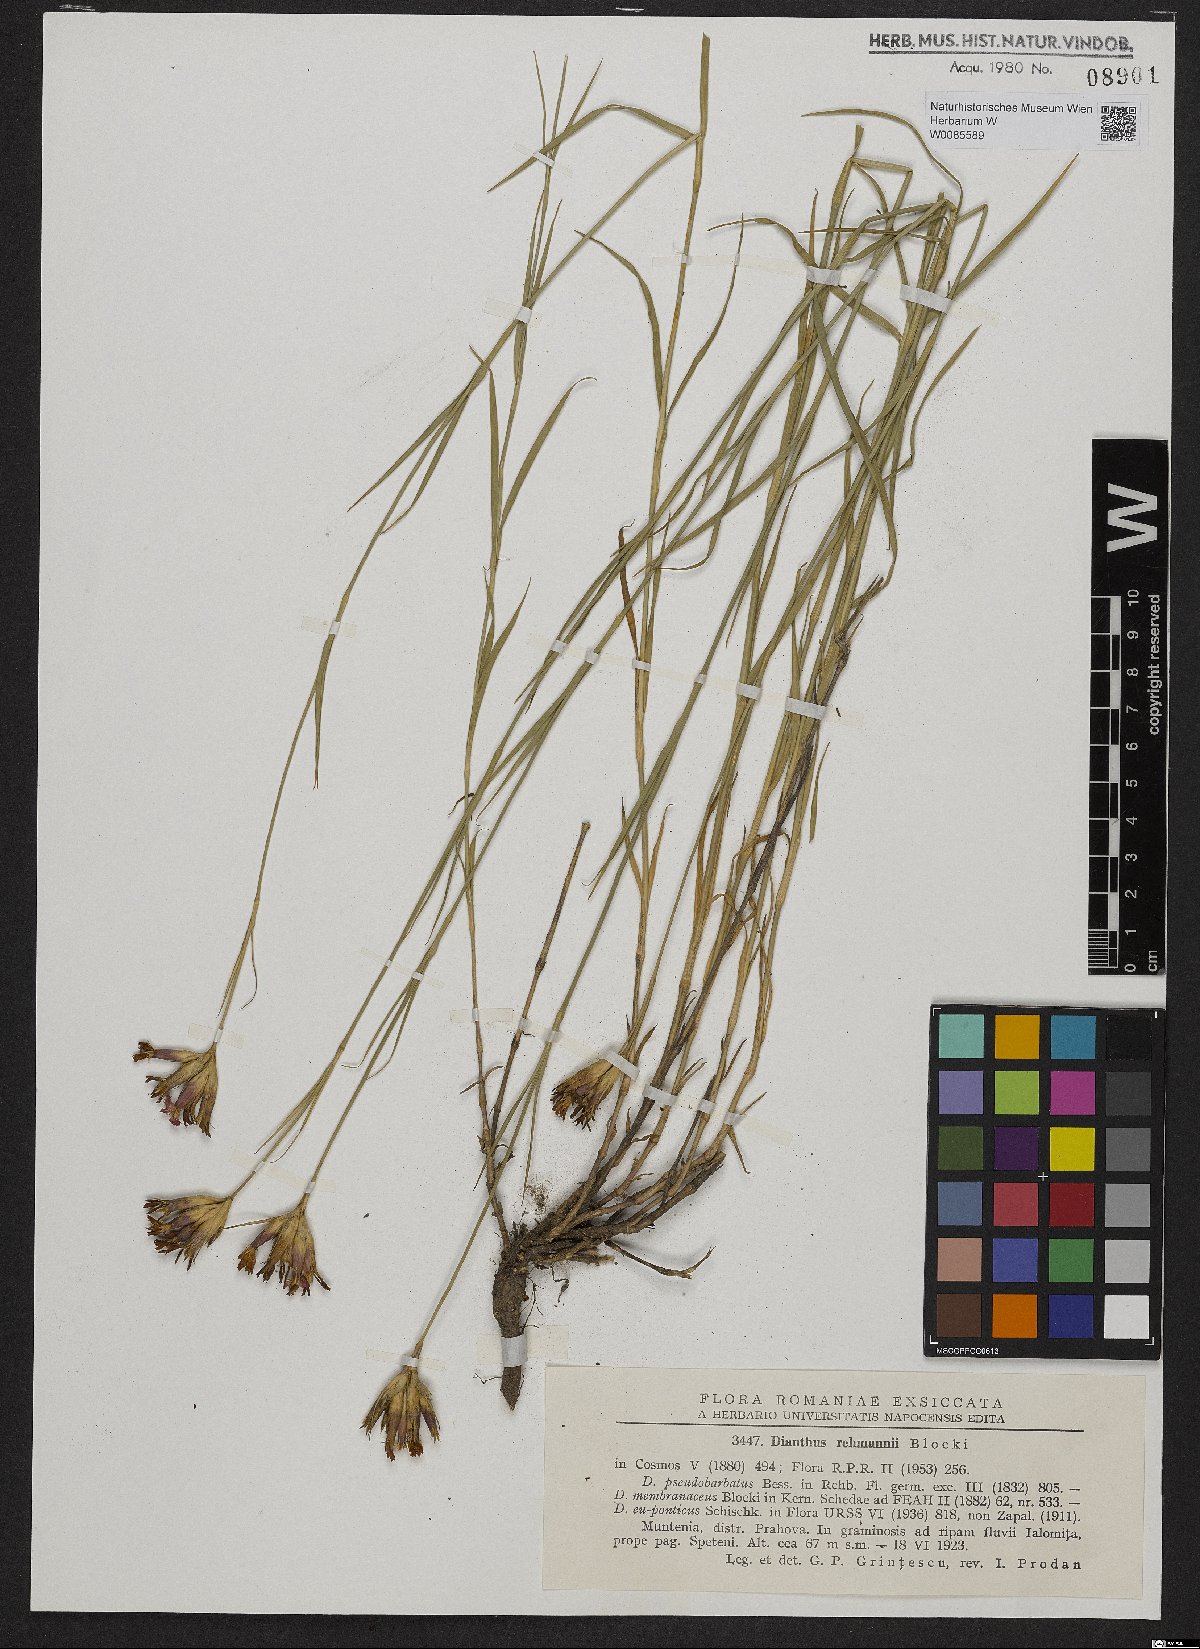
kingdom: Plantae
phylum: Tracheophyta
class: Magnoliopsida
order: Caryophyllales
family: Caryophyllaceae
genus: Dianthus
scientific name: Dianthus membranaceus
